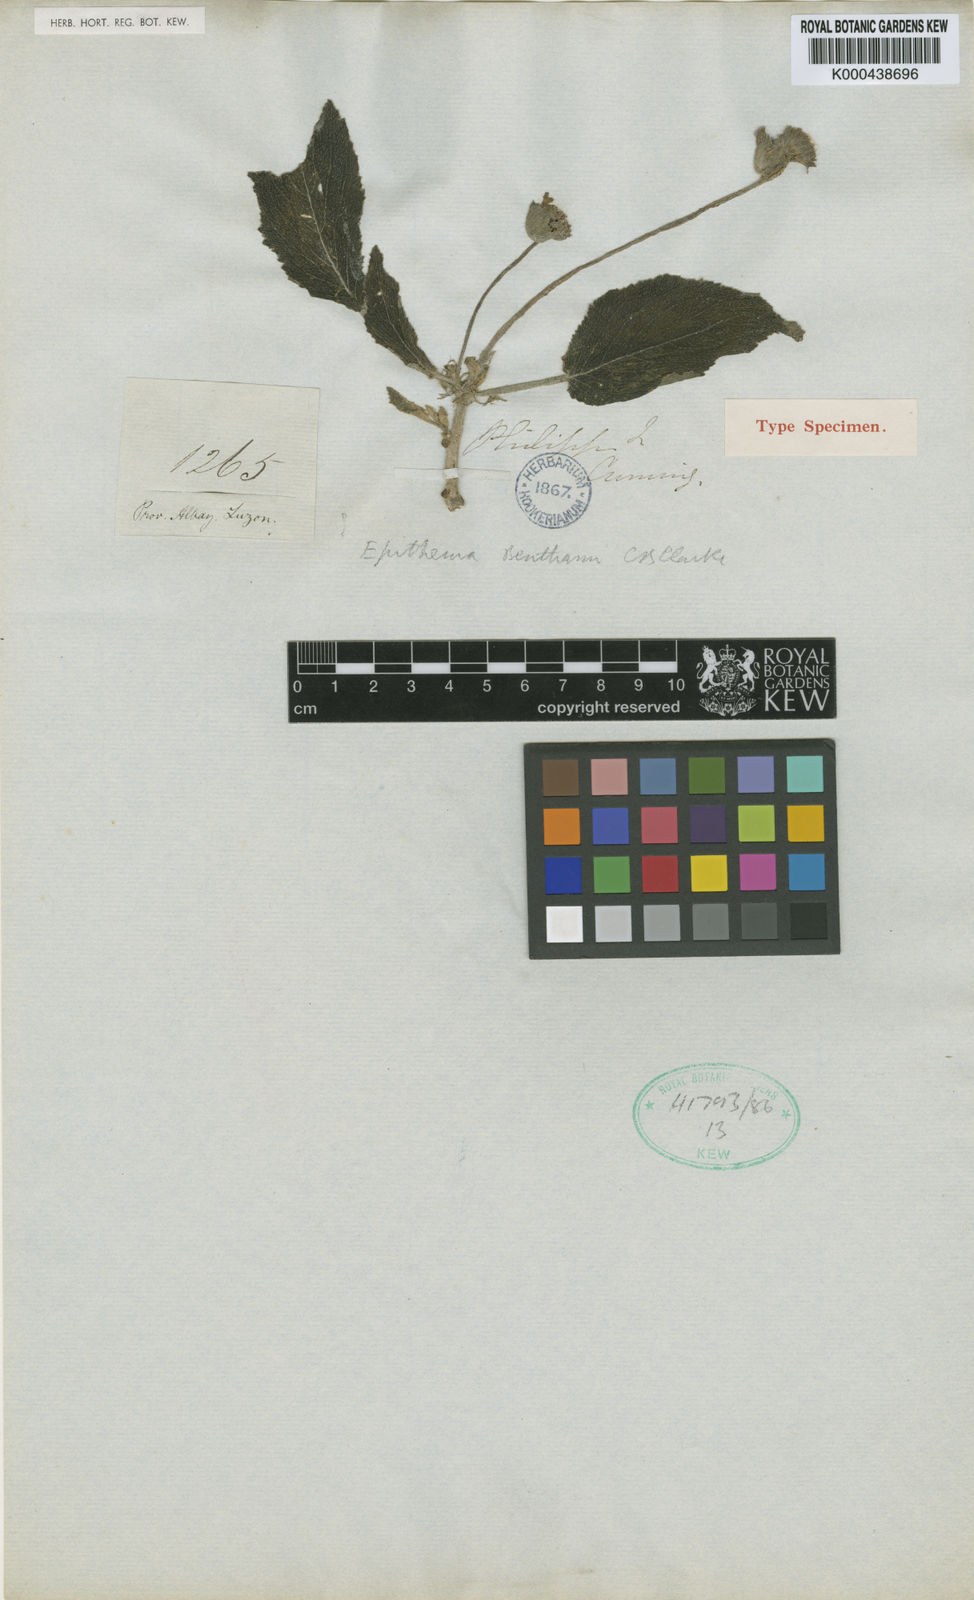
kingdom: Plantae
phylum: Tracheophyta
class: Magnoliopsida
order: Lamiales
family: Gesneriaceae
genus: Epithema
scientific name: Epithema benthamii
